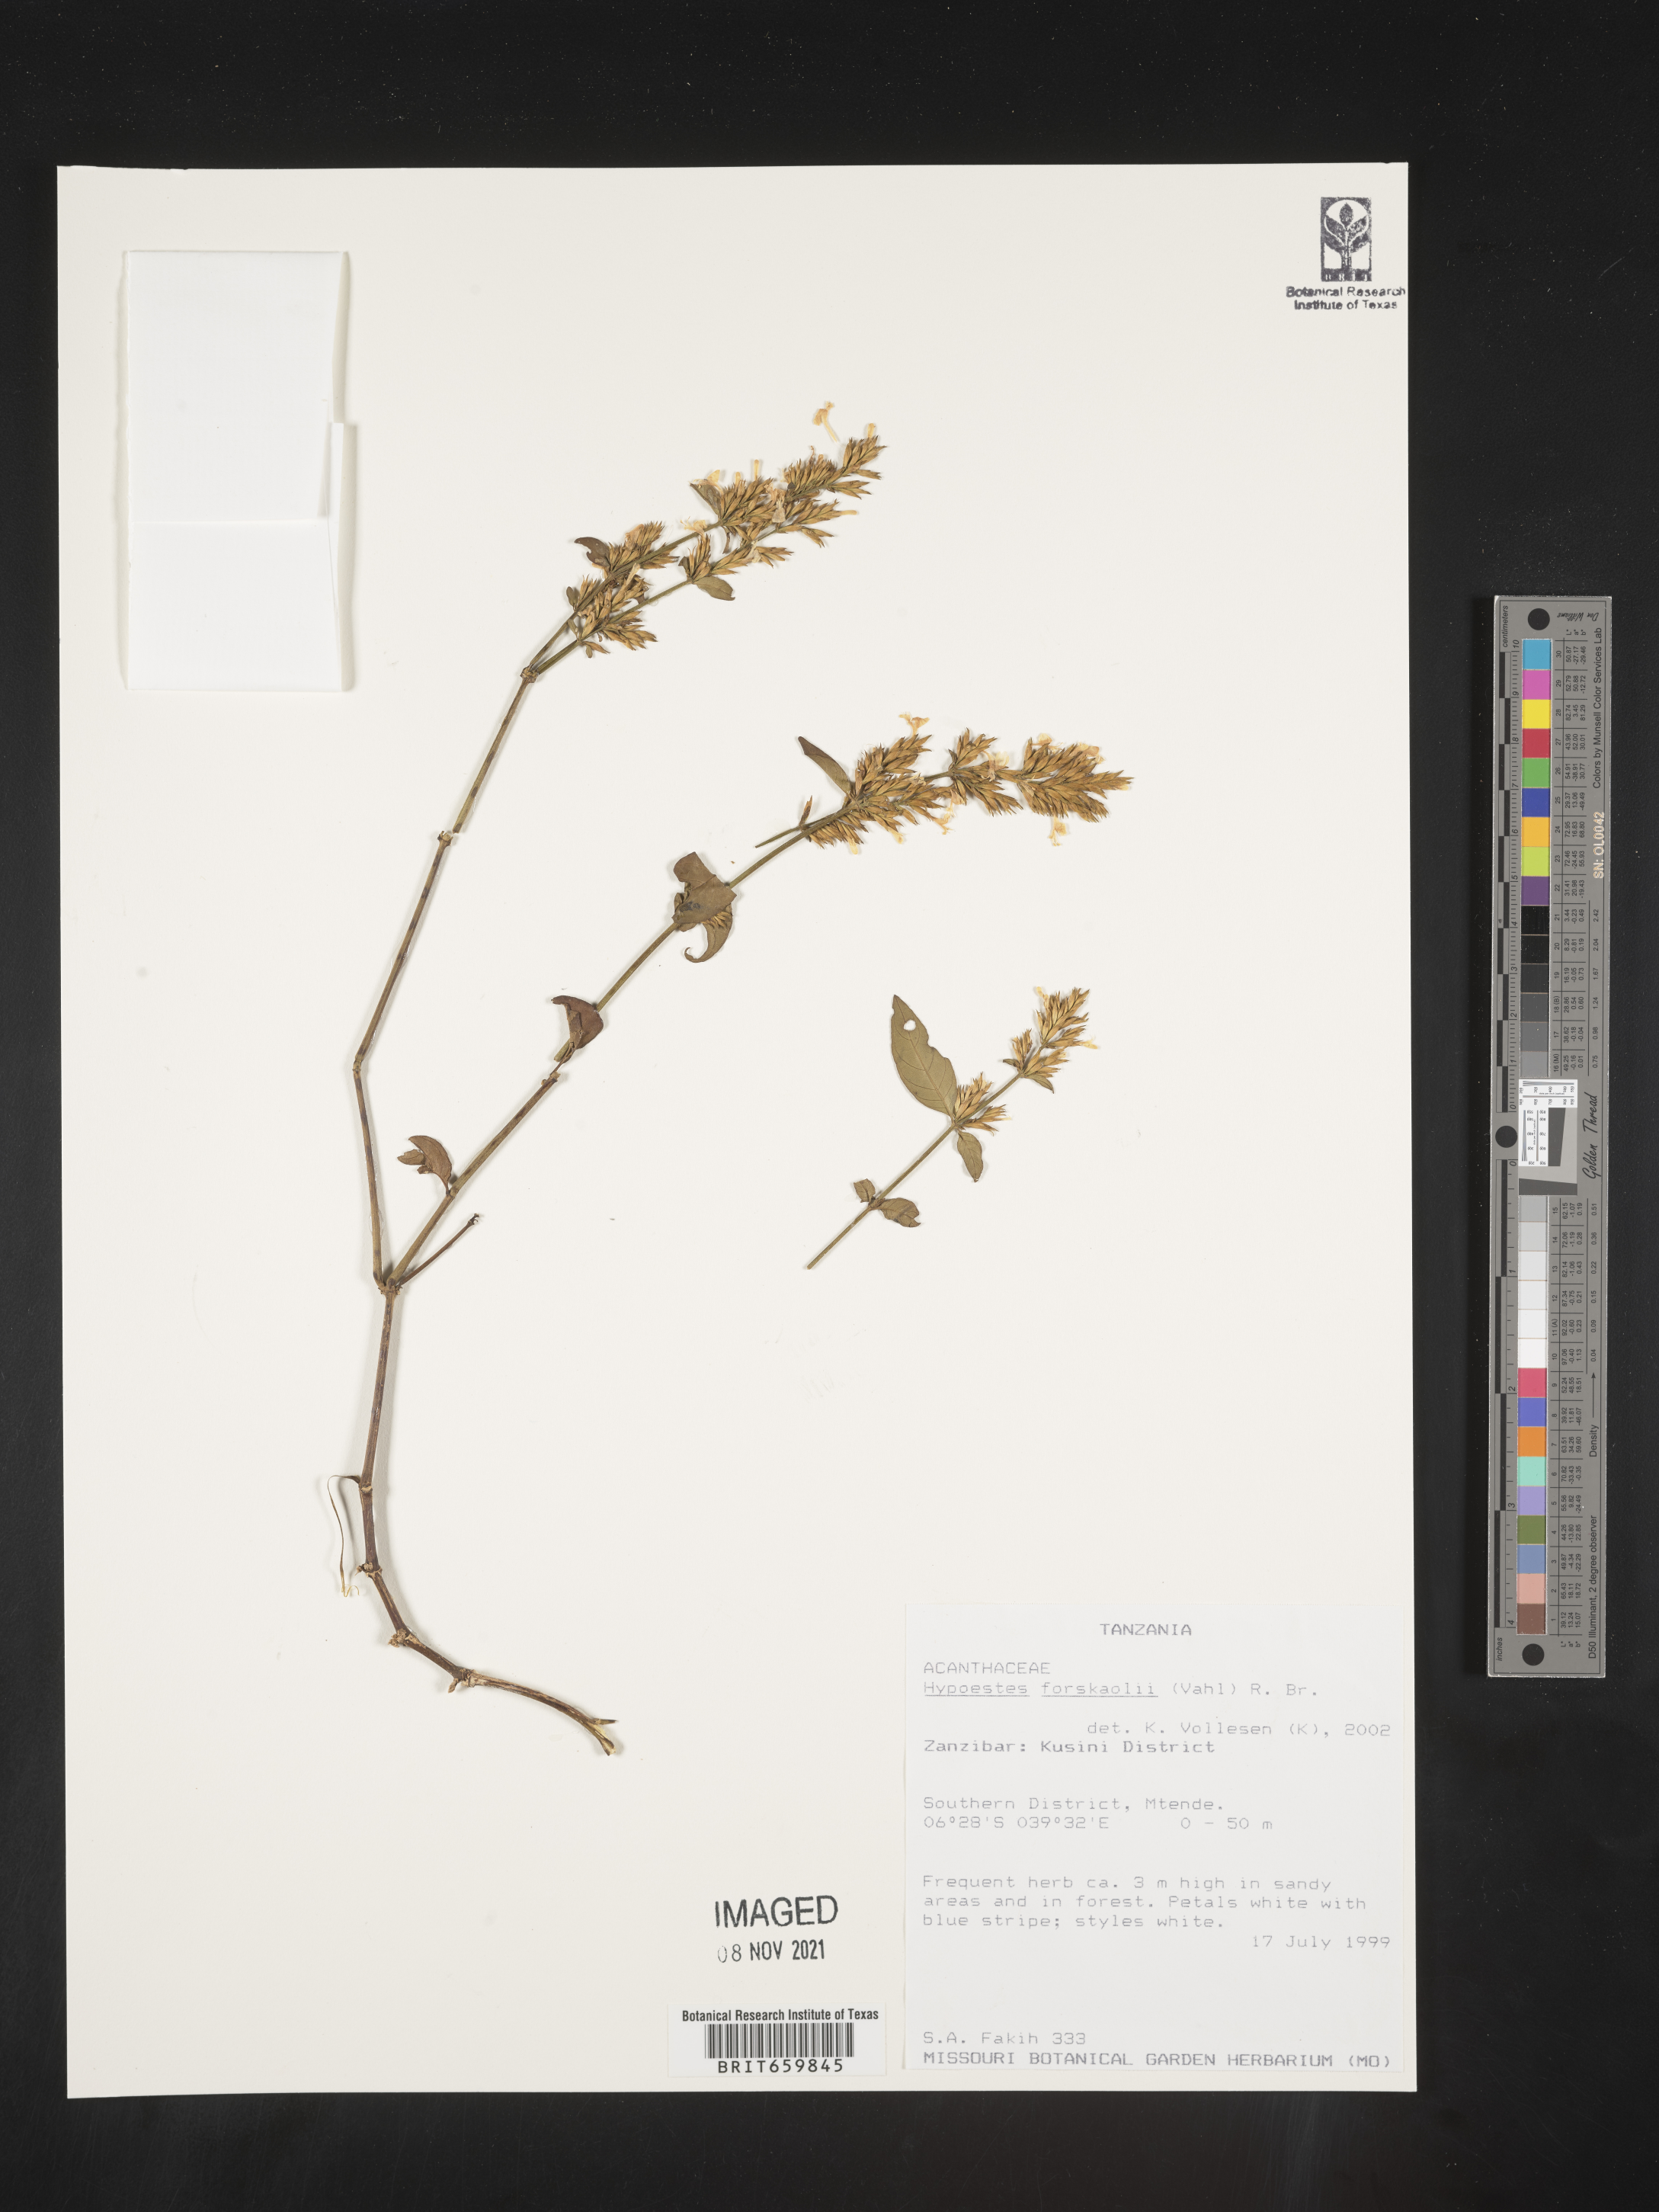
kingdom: Plantae
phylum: Tracheophyta
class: Magnoliopsida
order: Lamiales
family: Acanthaceae
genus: Hypoestes
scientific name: Hypoestes forskaolii
